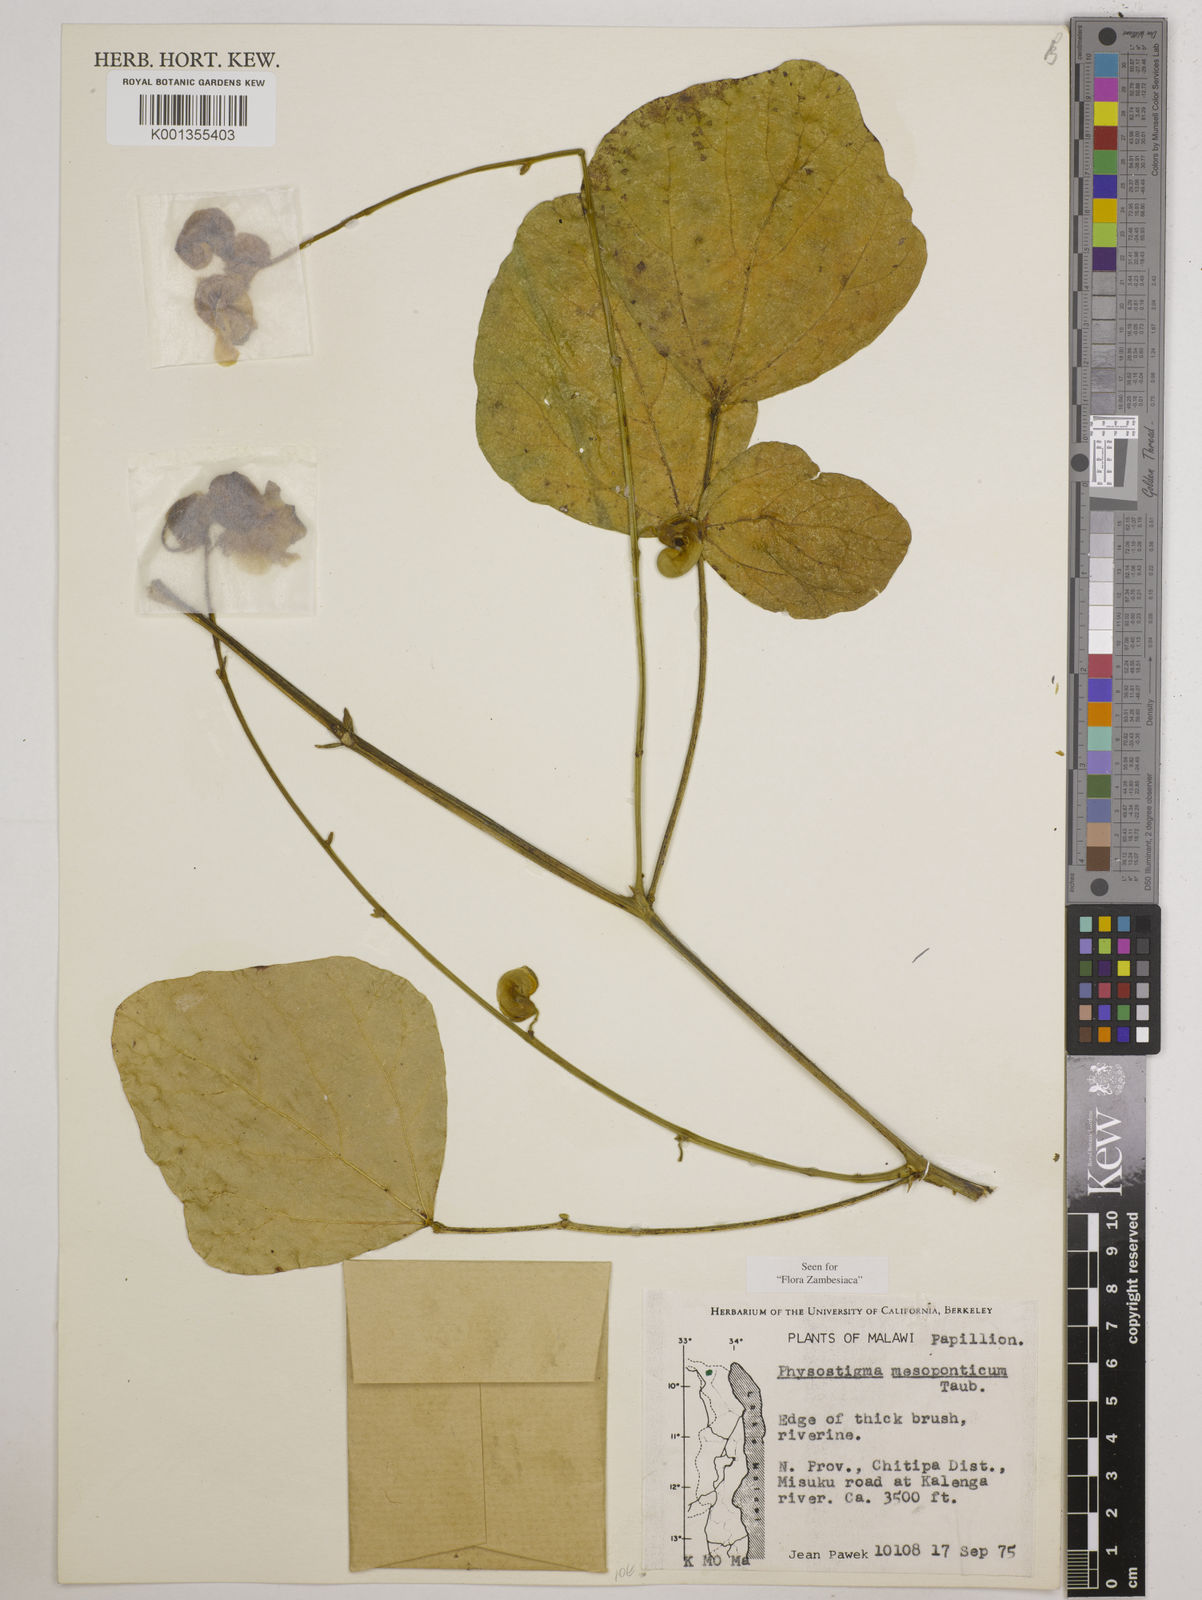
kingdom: Plantae
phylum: Tracheophyta
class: Magnoliopsida
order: Fabales
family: Fabaceae
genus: Physostigma
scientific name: Physostigma mesoponticum
